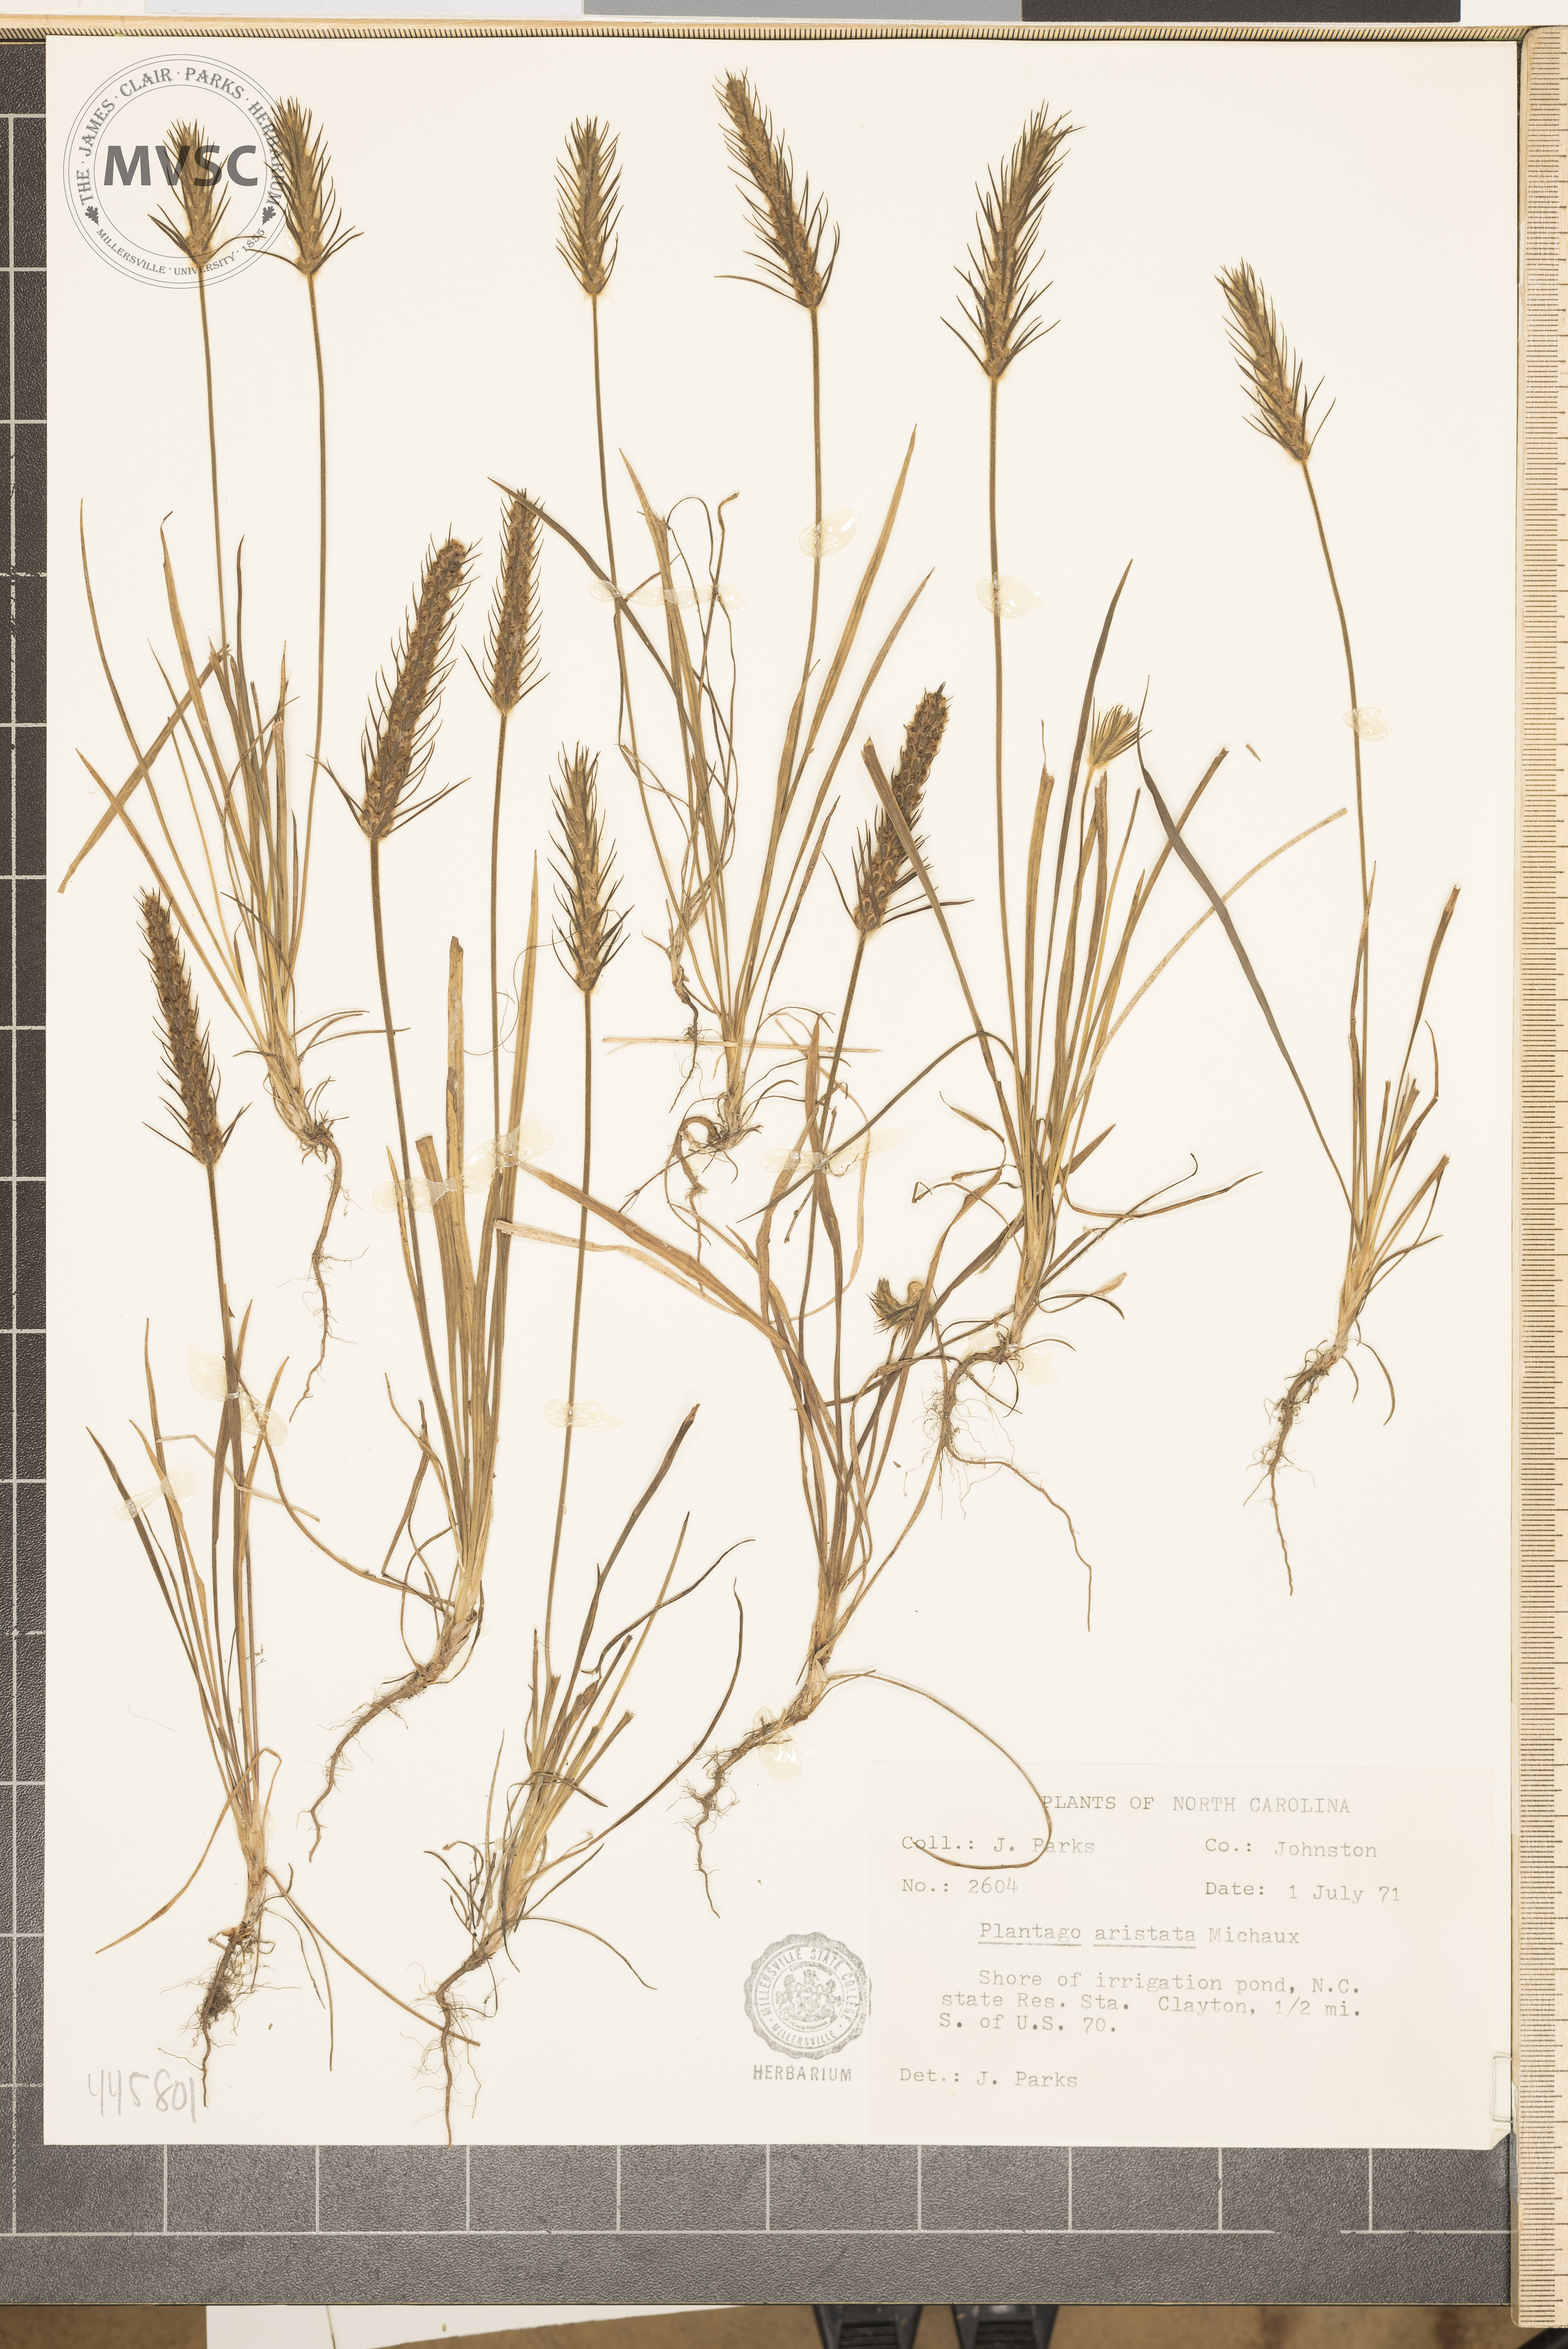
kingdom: Plantae
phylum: Tracheophyta
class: Magnoliopsida
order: Lamiales
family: Plantaginaceae
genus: Plantago
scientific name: Plantago aristata
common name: Bracted plantain
